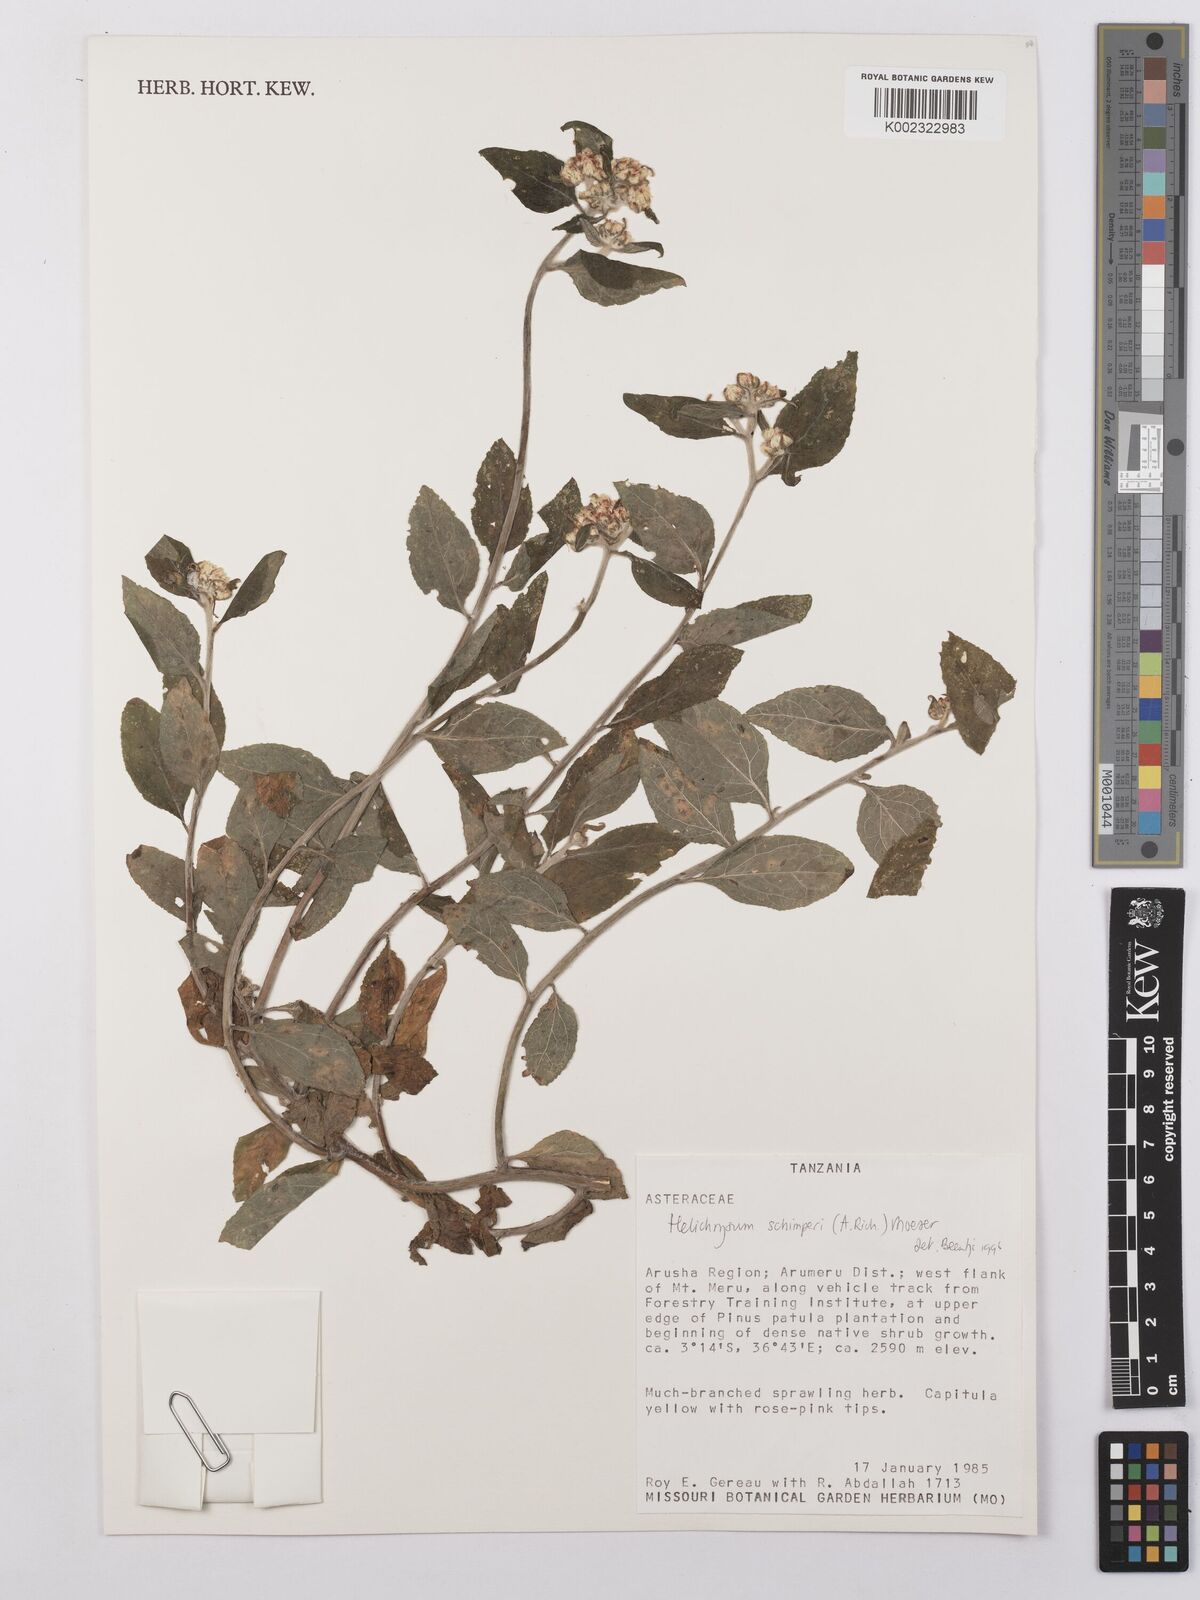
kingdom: Plantae
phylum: Tracheophyta
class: Magnoliopsida
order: Asterales
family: Asteraceae
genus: Helichrysum
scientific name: Helichrysum schimperi
